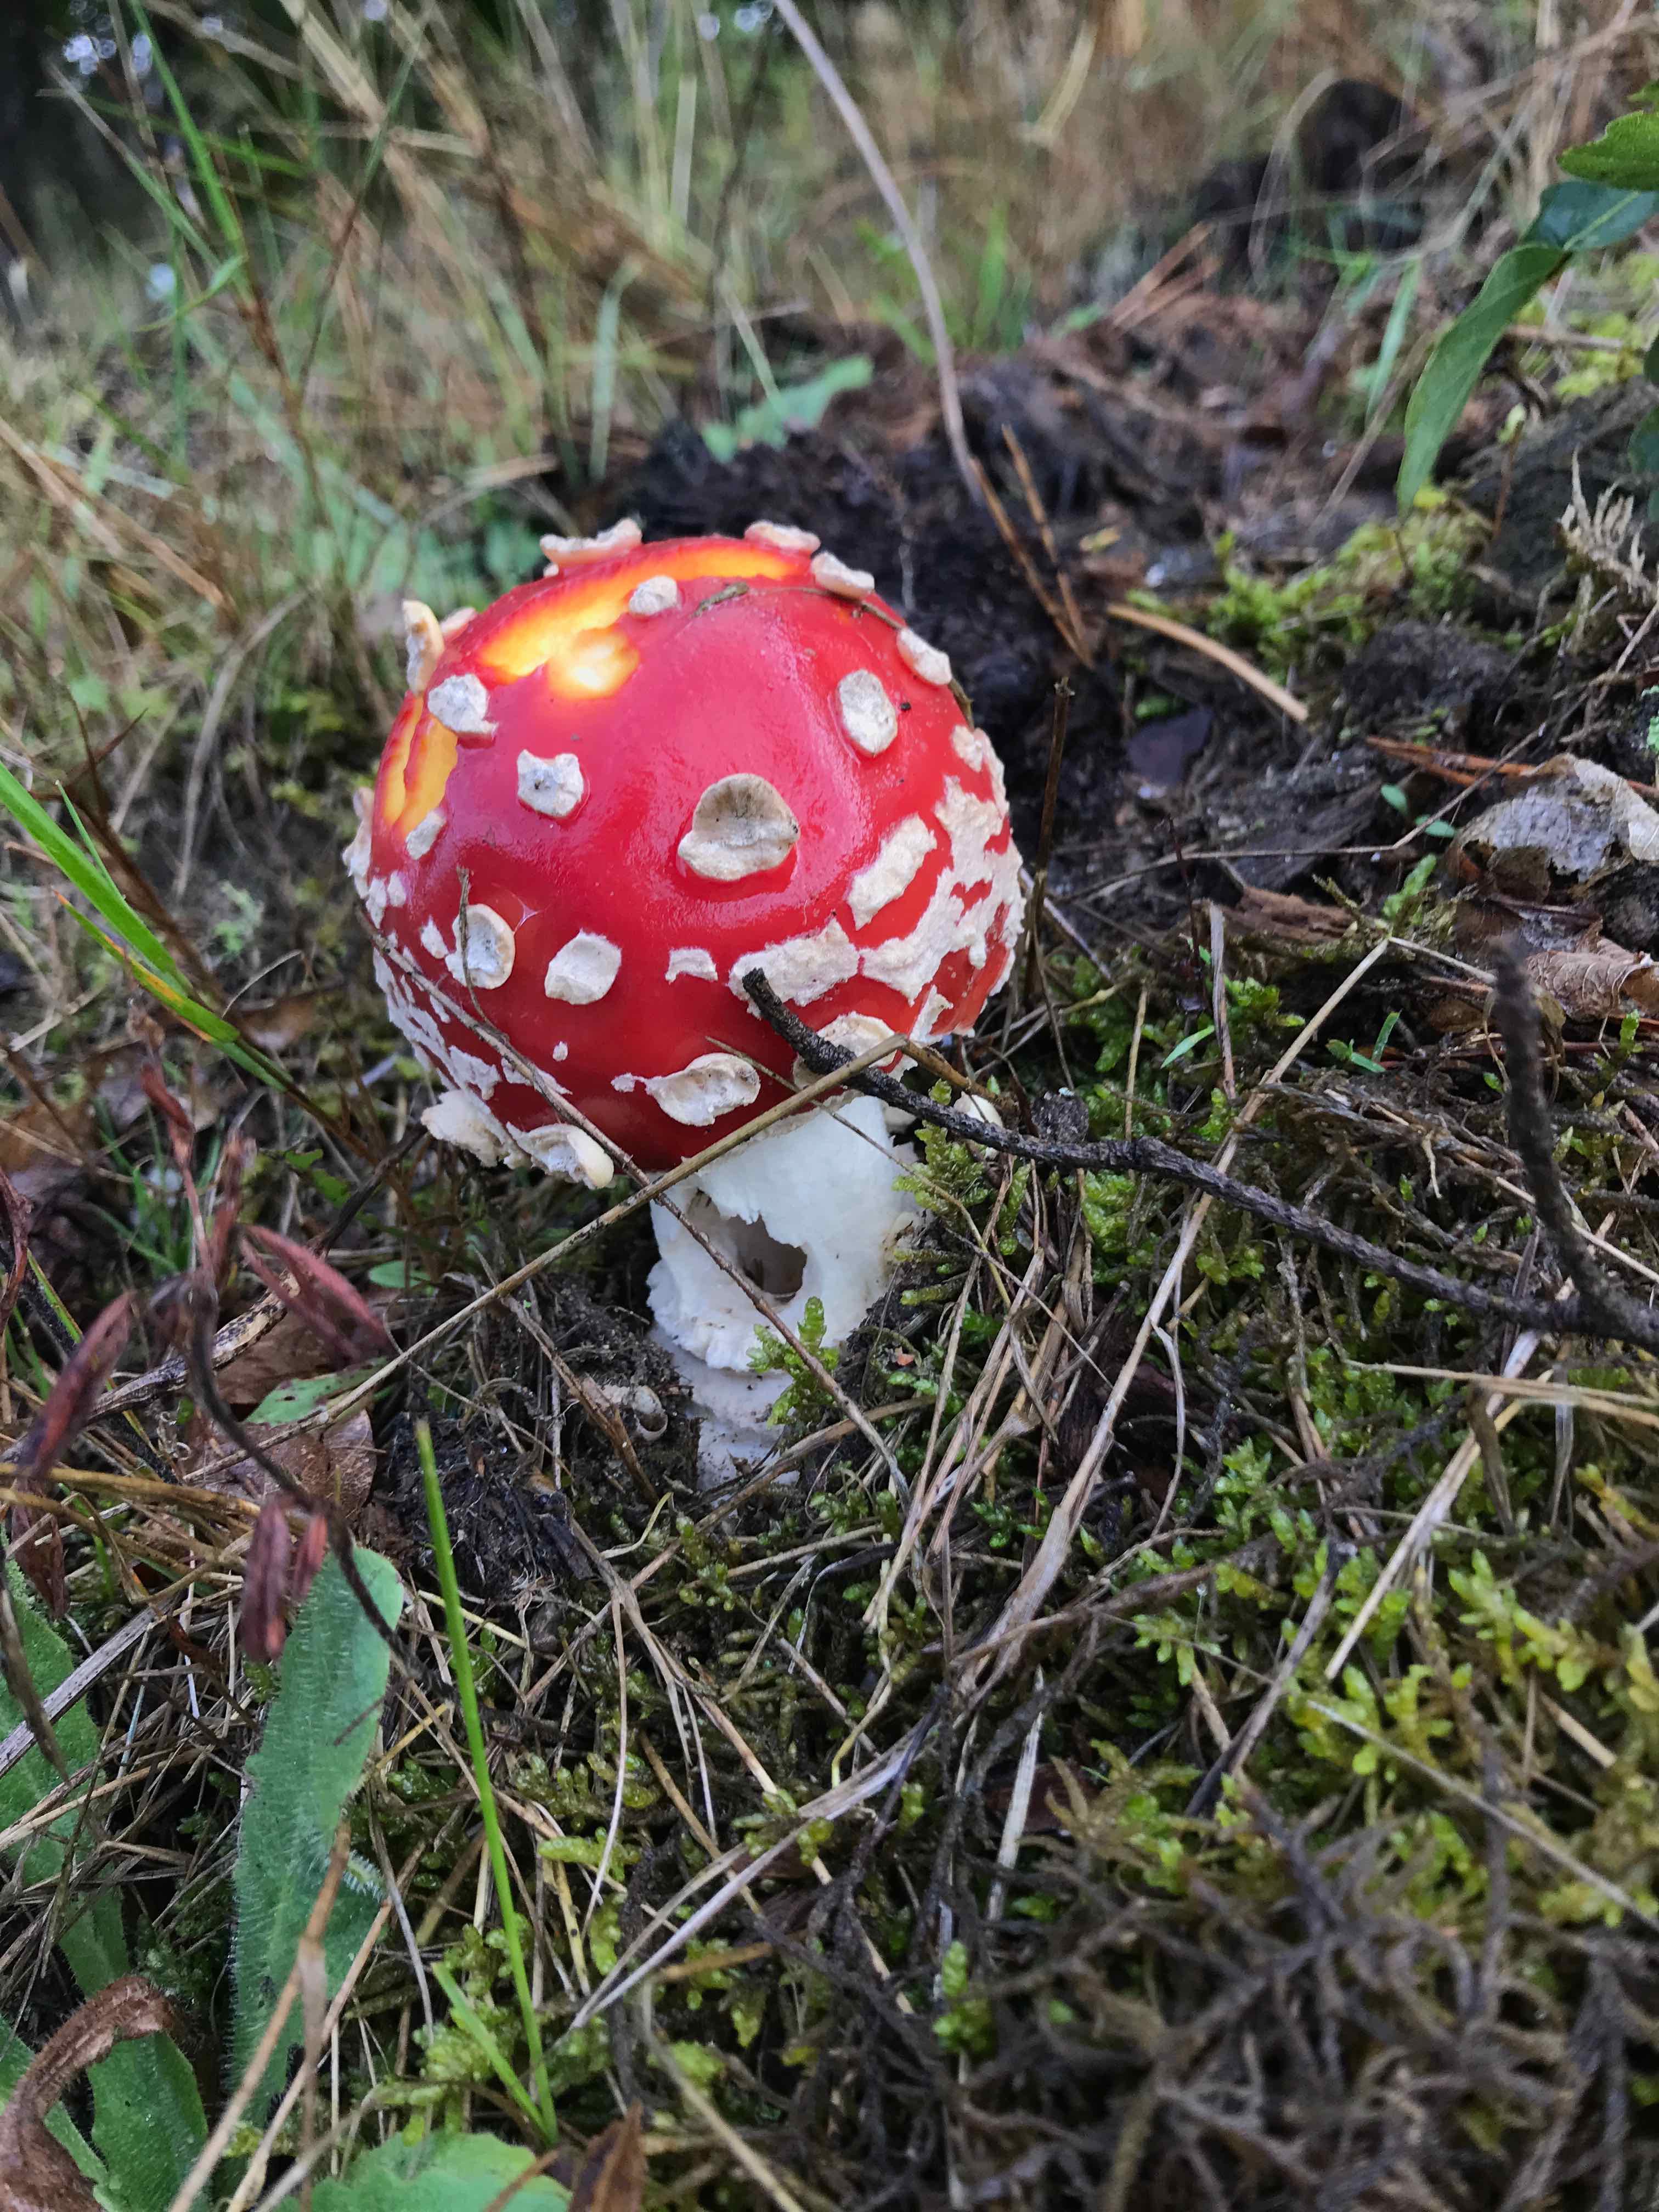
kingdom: Fungi
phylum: Basidiomycota
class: Agaricomycetes
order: Agaricales
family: Amanitaceae
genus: Amanita
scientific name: Amanita muscaria
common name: rød fluesvamp
